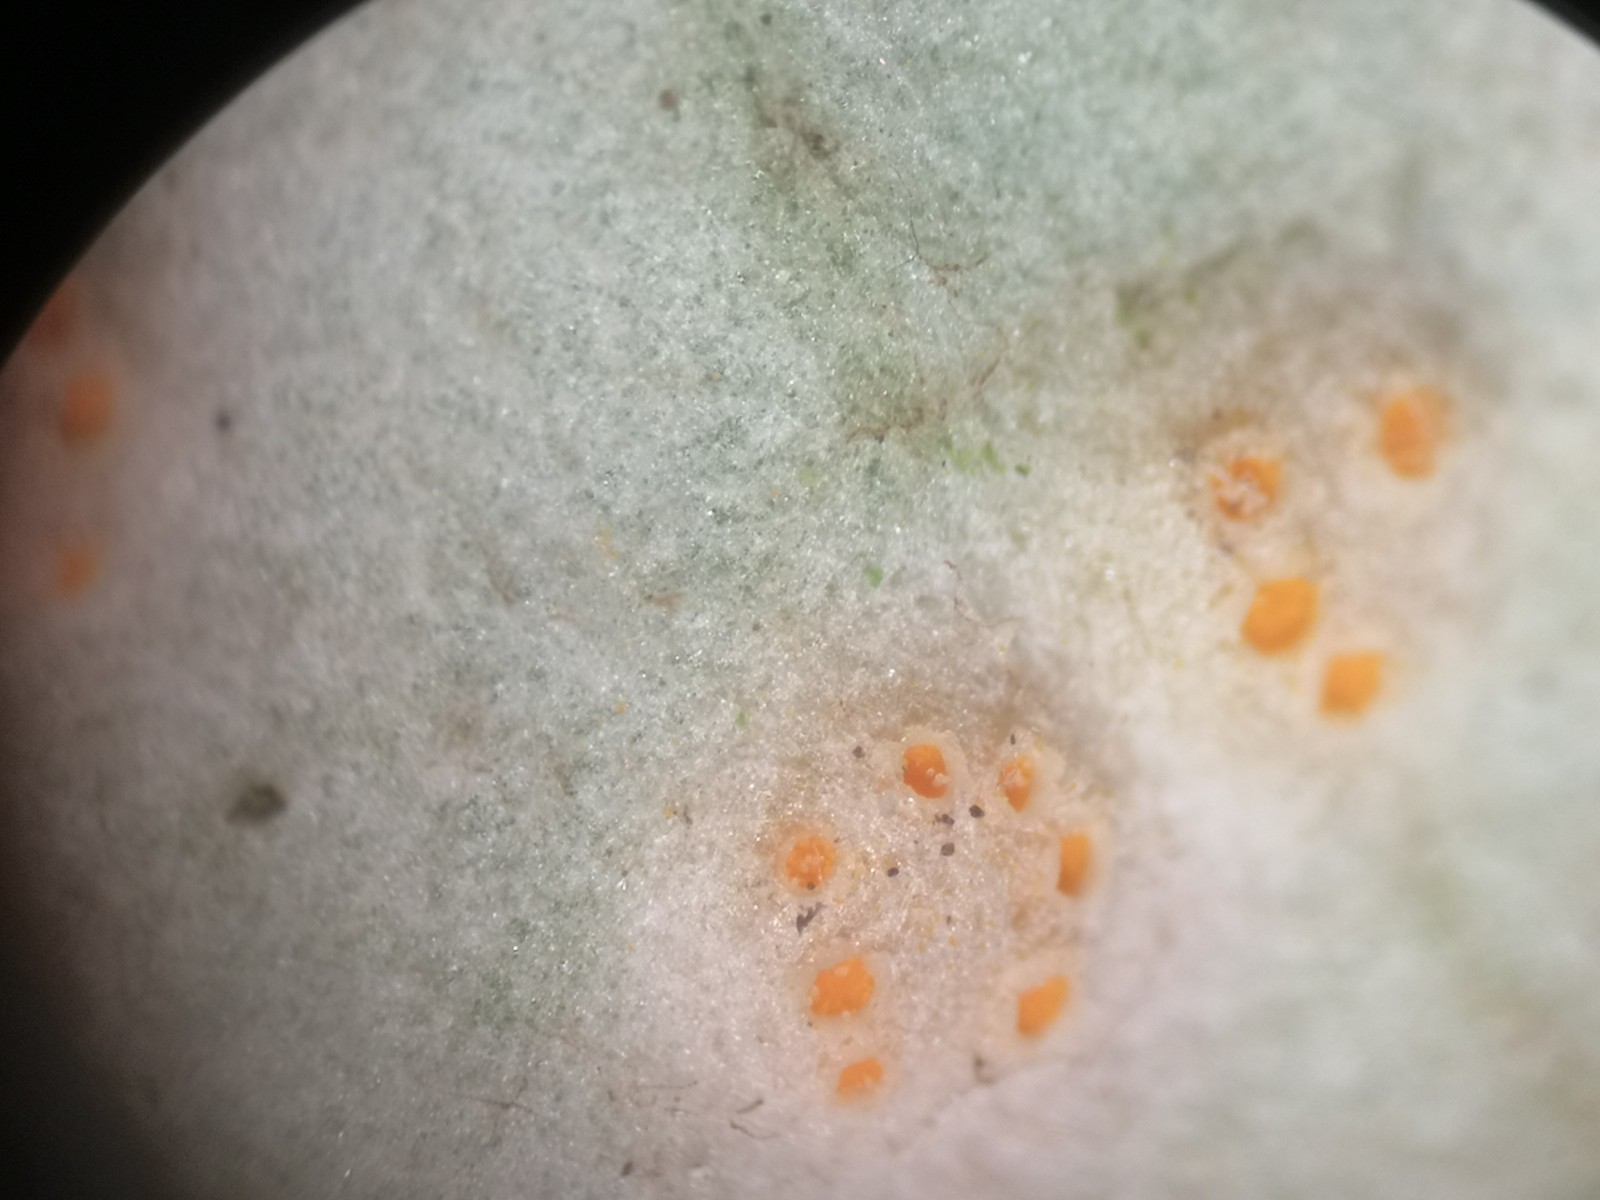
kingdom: Fungi
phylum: Basidiomycota
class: Pucciniomycetes
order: Pucciniales
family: Pucciniaceae
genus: Puccinia
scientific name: Puccinia poarum
